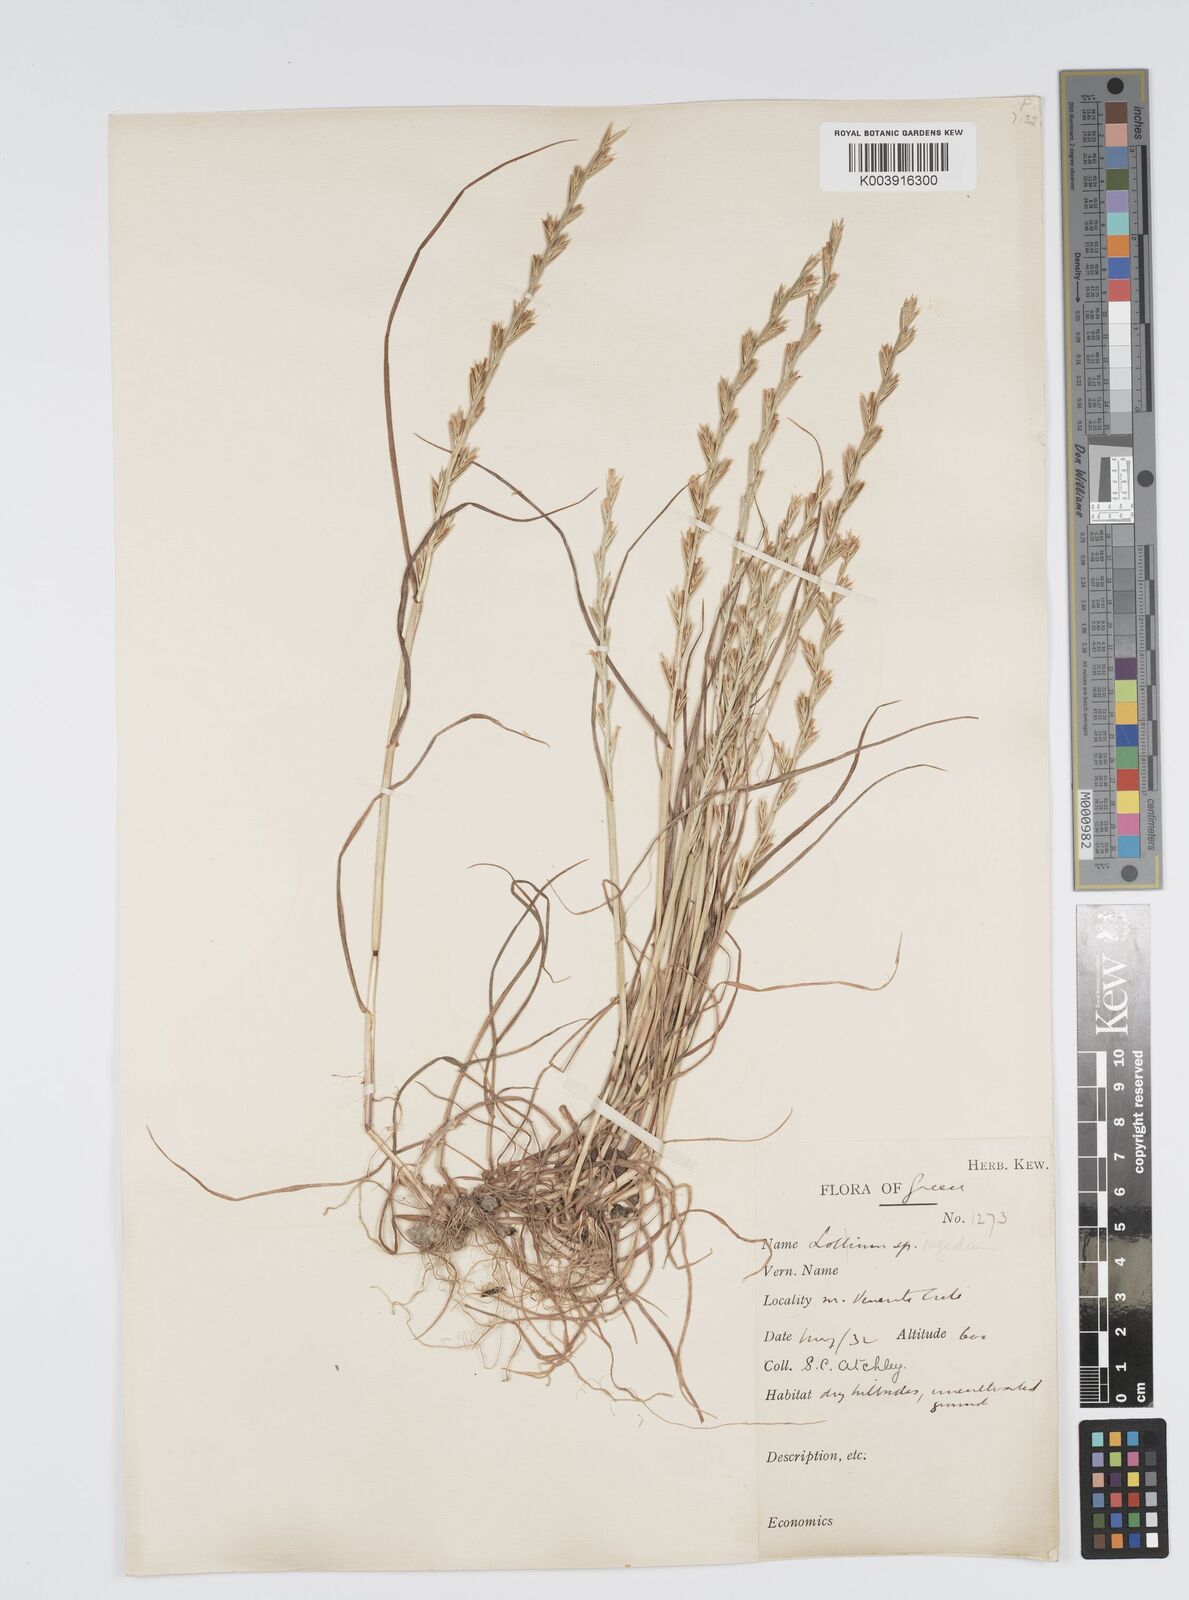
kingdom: Plantae
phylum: Tracheophyta
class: Liliopsida
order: Poales
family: Poaceae
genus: Lolium
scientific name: Lolium rigidum
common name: Wimmera ryegrass
